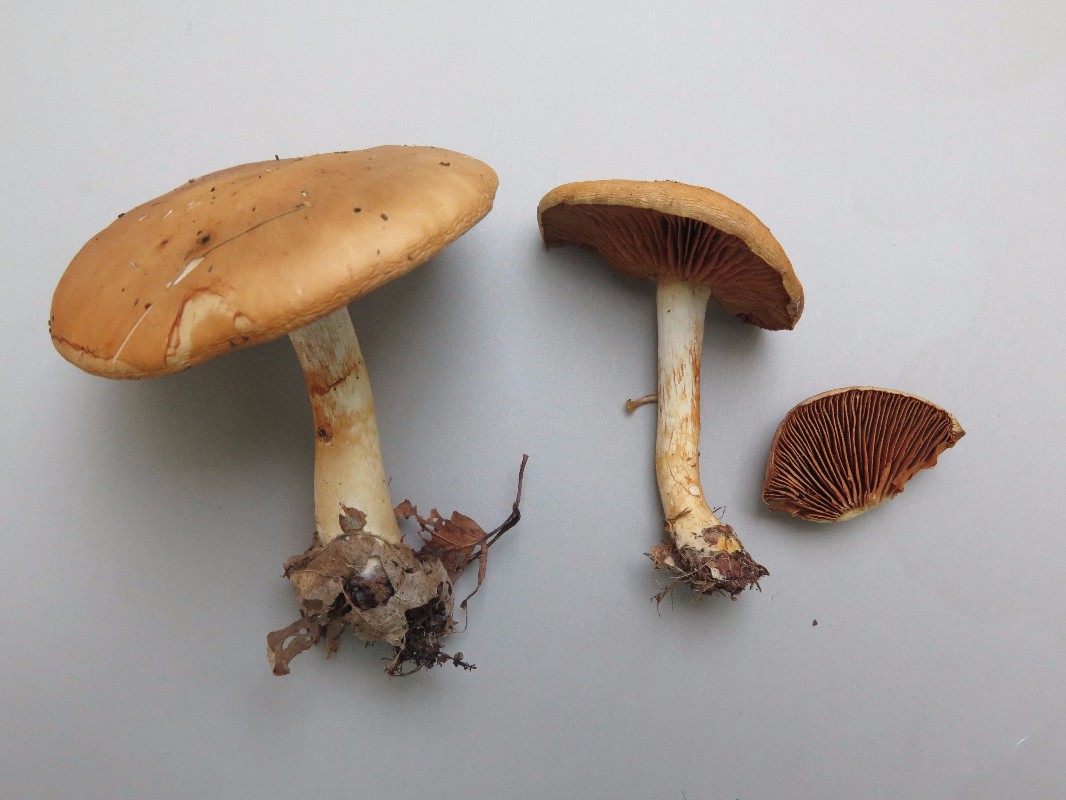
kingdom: Fungi
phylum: Basidiomycota
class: Agaricomycetes
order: Agaricales
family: Cortinariaceae
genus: Cortinarius
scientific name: Cortinarius
